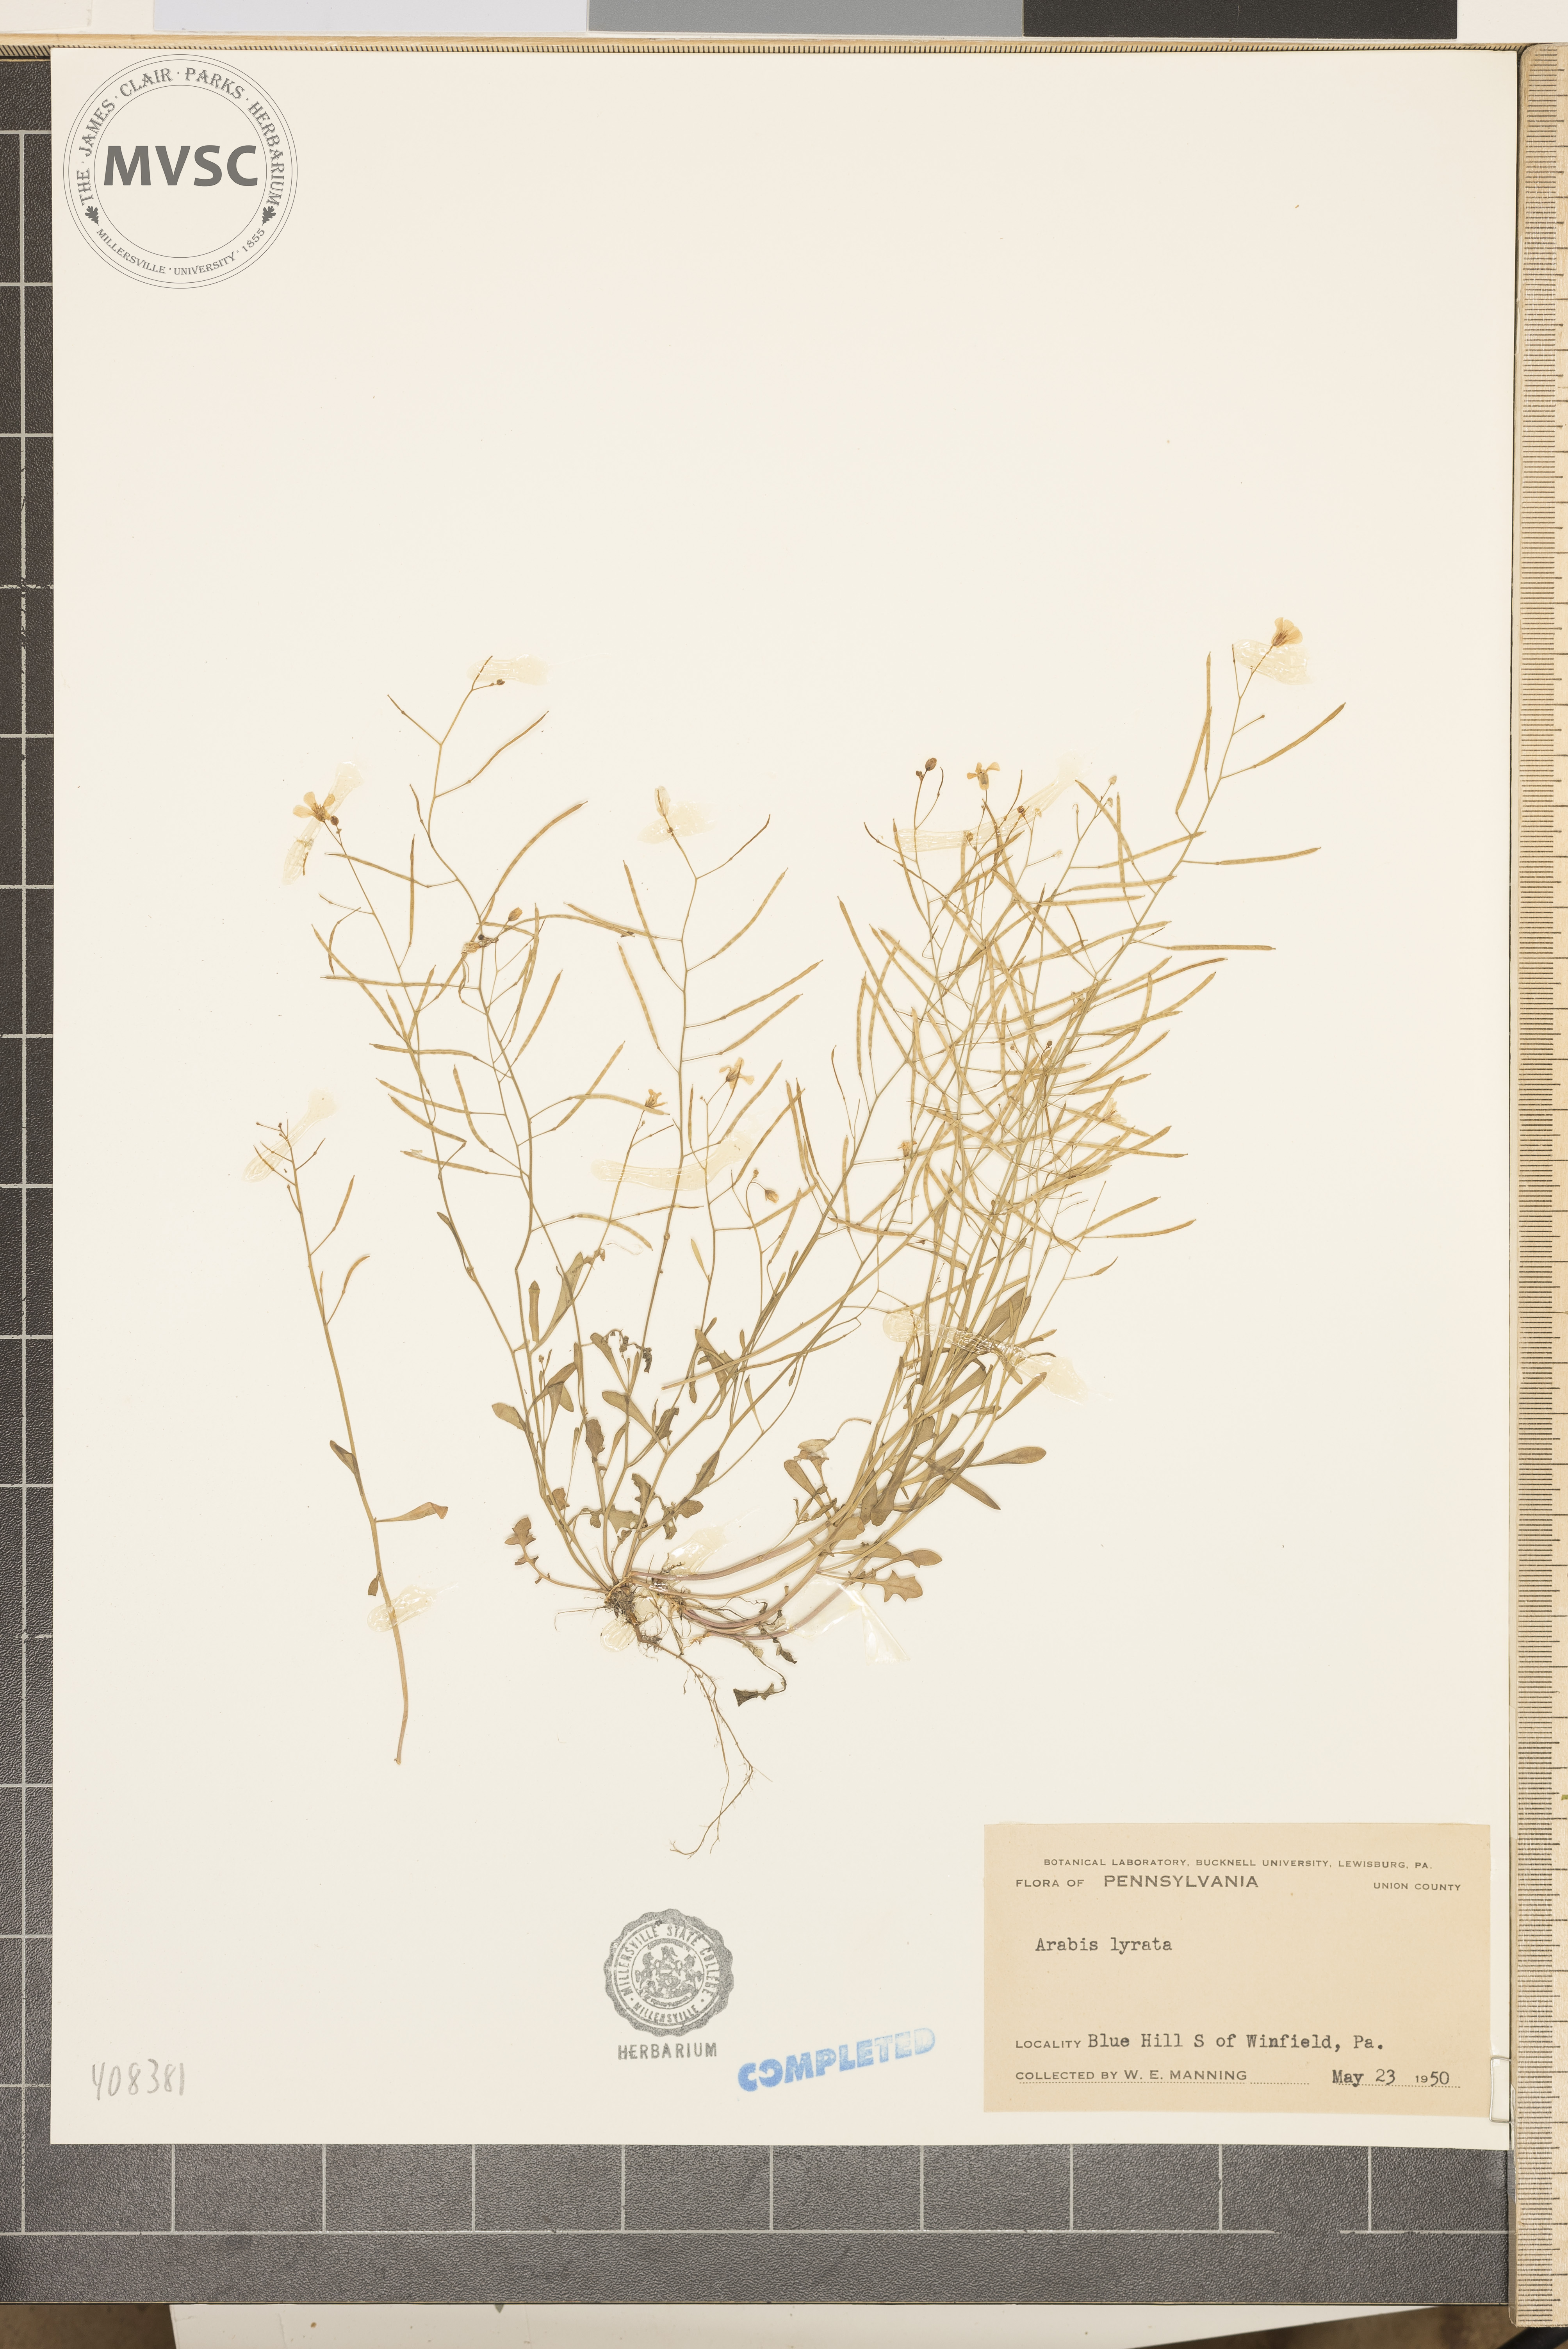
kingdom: Plantae
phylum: Tracheophyta
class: Magnoliopsida
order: Brassicales
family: Brassicaceae
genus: Arabidopsis
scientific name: Arabidopsis lyrata
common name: Lyrate rockcress
